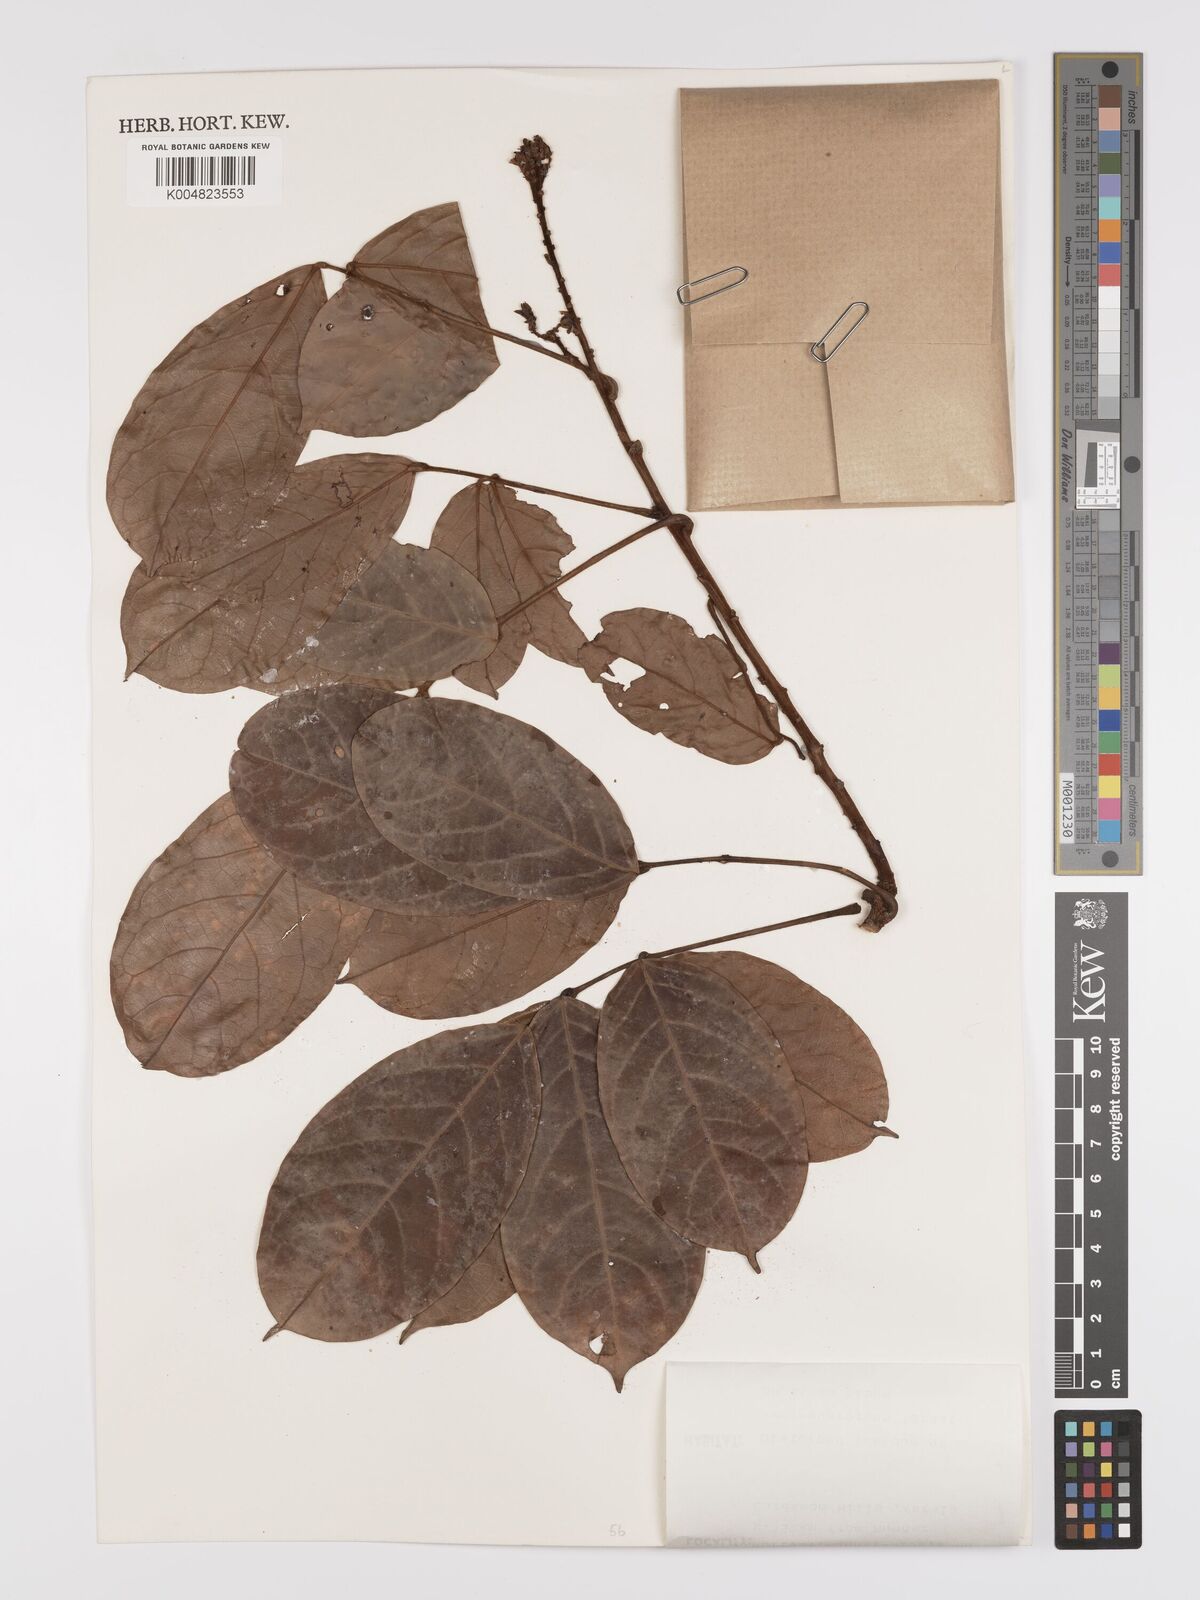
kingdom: Plantae
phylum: Tracheophyta
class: Magnoliopsida
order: Oxalidales
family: Connaraceae
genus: Connarus
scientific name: Connarus kingii
